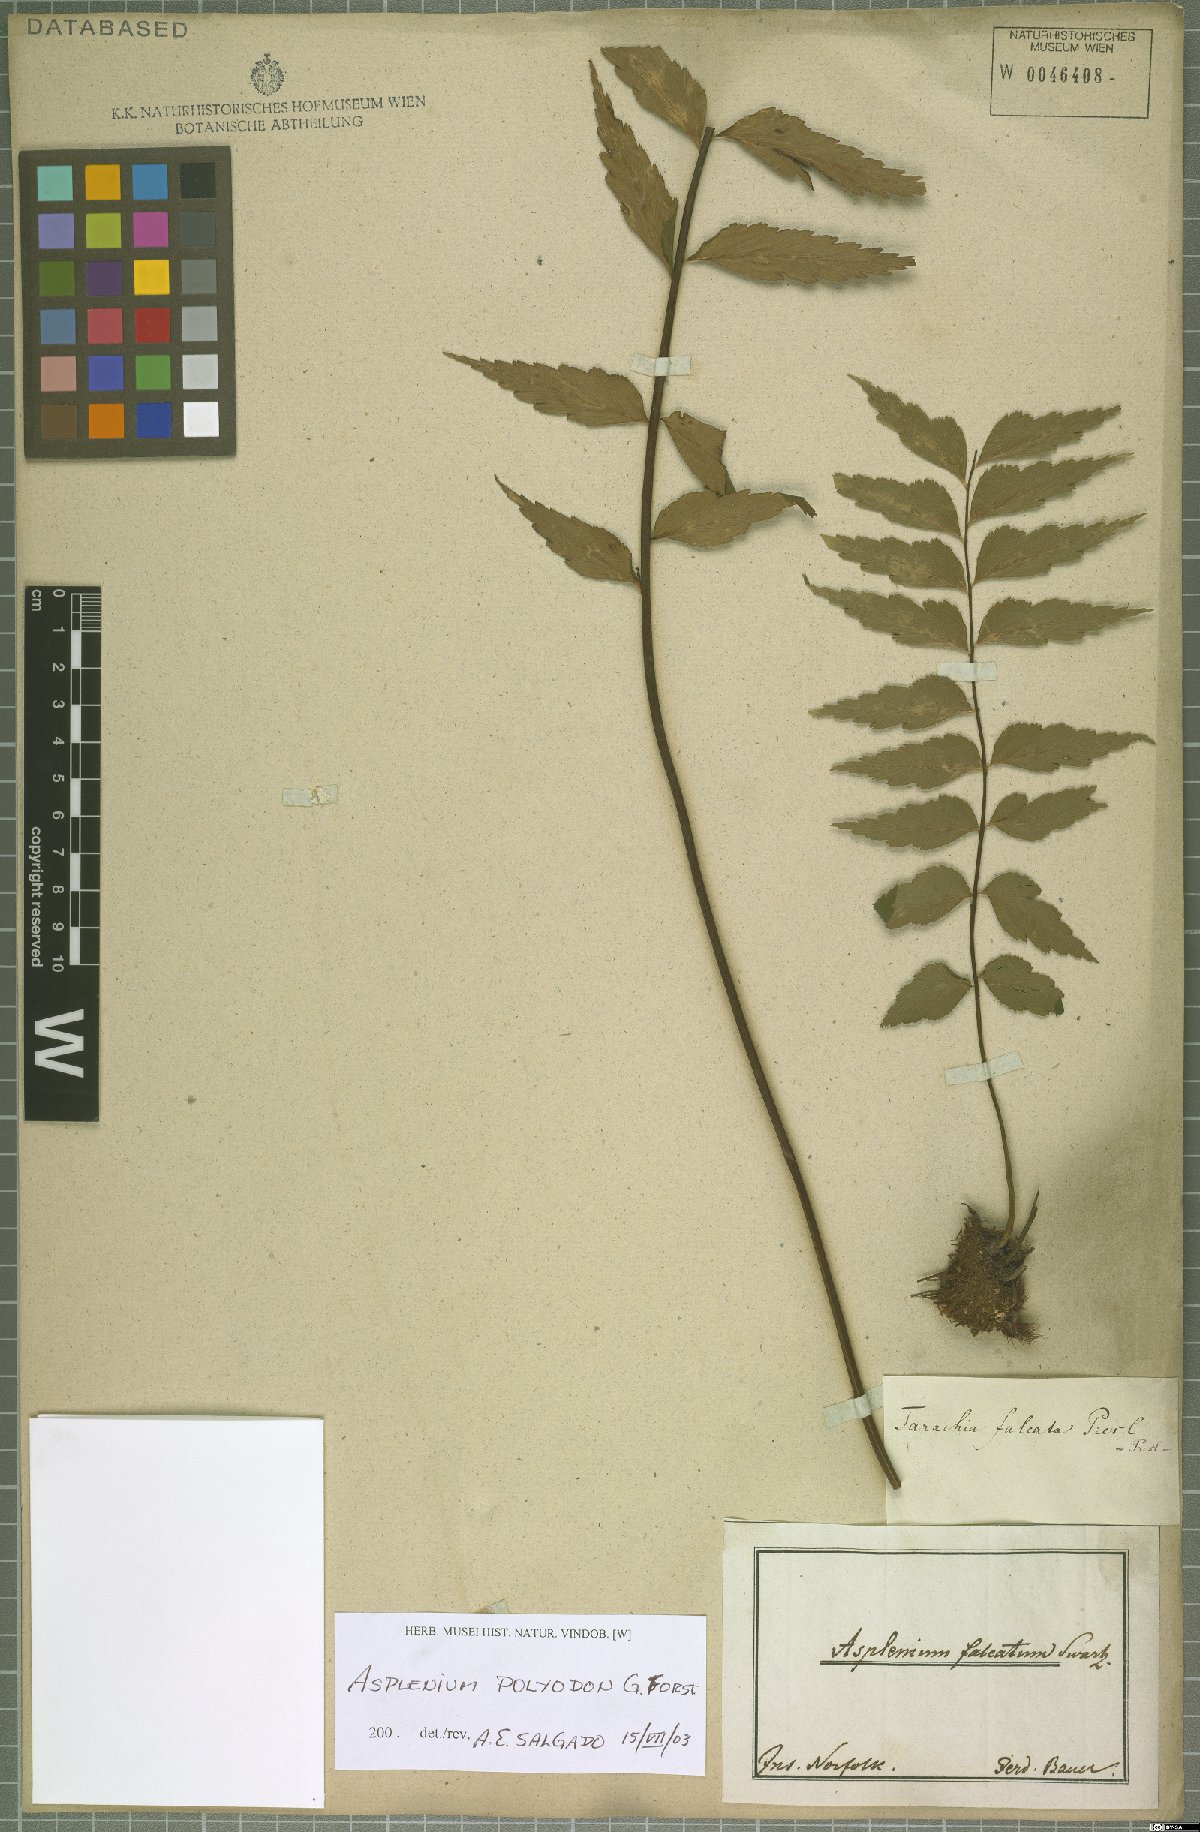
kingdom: Plantae
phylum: Tracheophyta
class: Polypodiopsida
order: Polypodiales
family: Aspleniaceae
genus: Asplenium
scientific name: Asplenium polyodon
